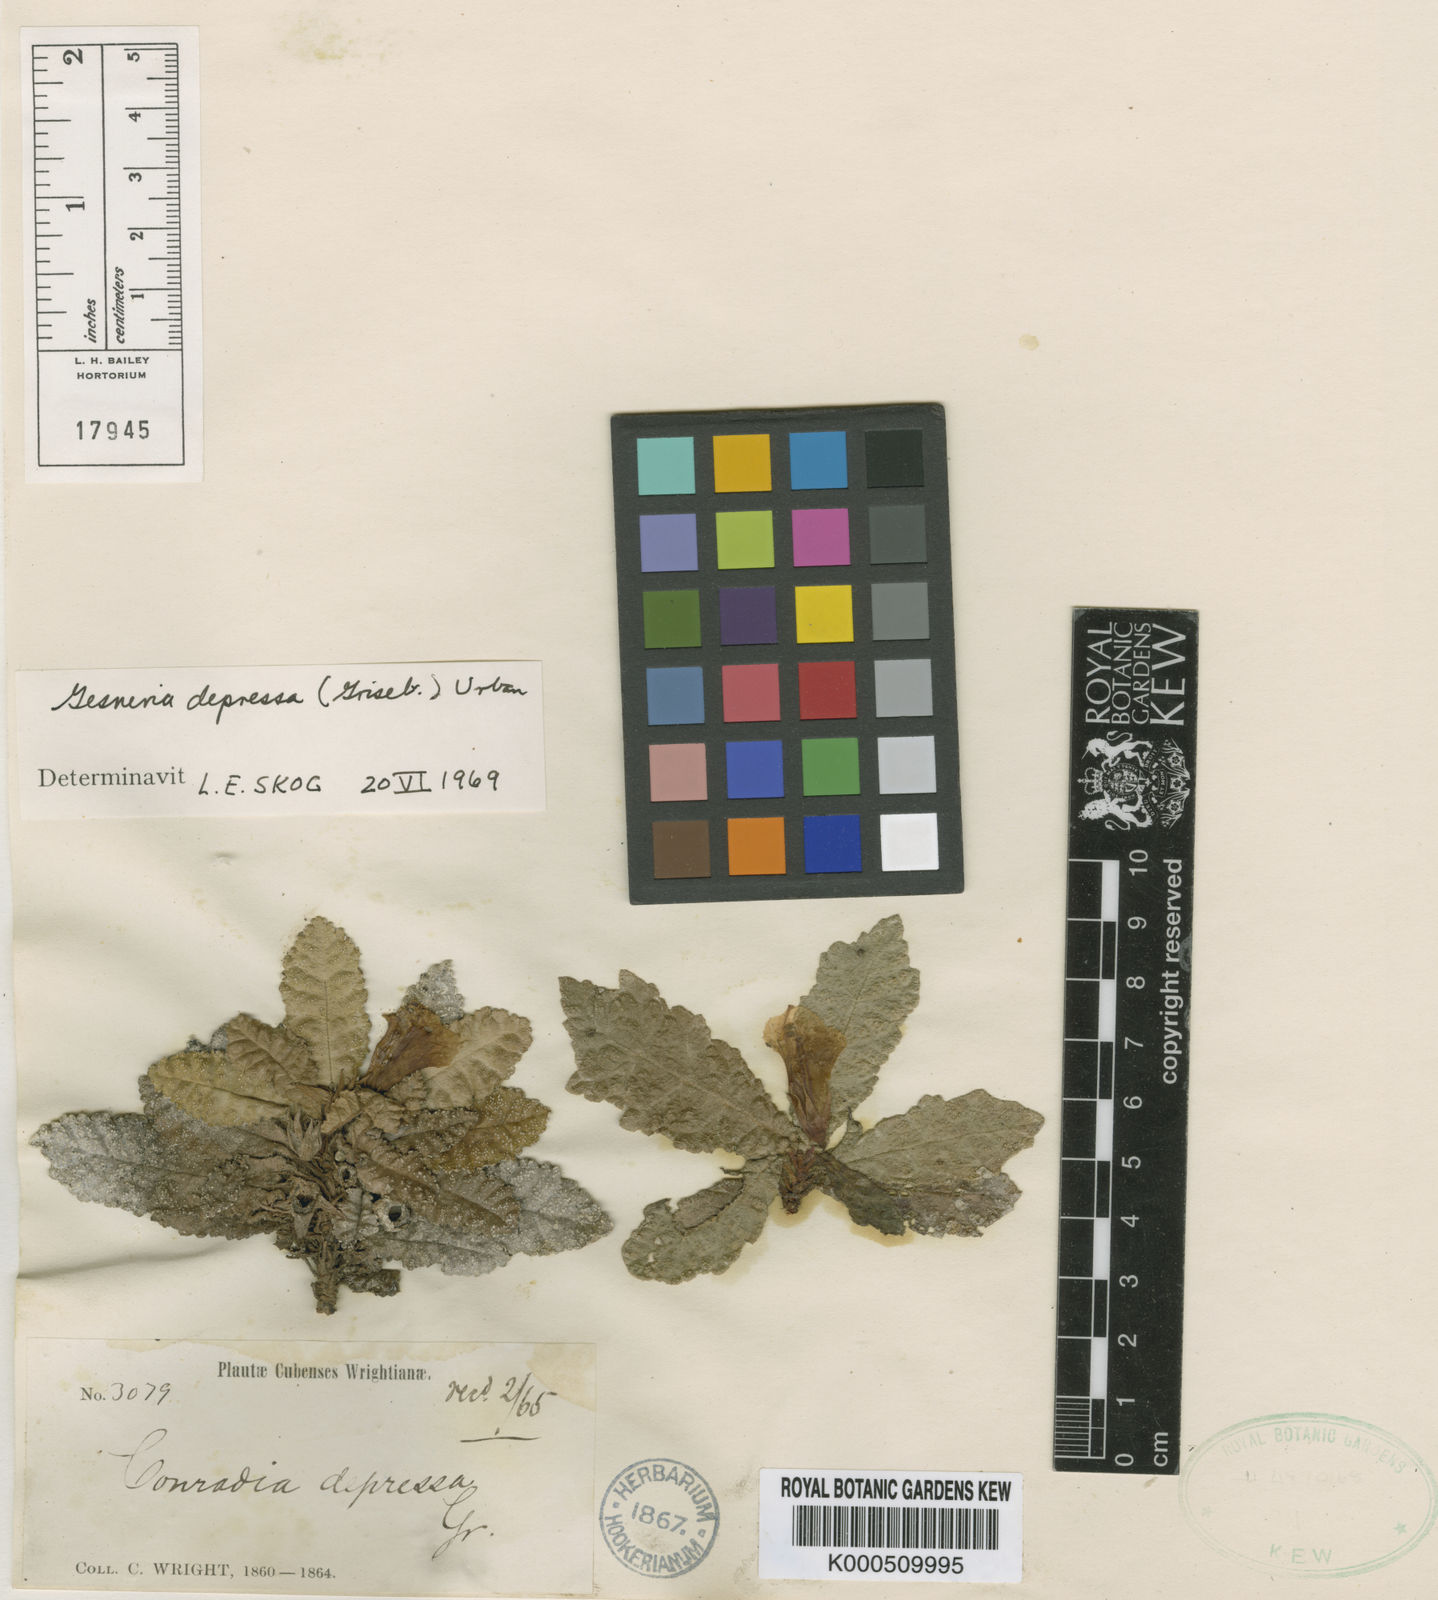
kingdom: Plantae
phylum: Tracheophyta
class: Magnoliopsida
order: Lamiales
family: Gesneriaceae
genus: Gesneria
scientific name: Gesneria depressa
